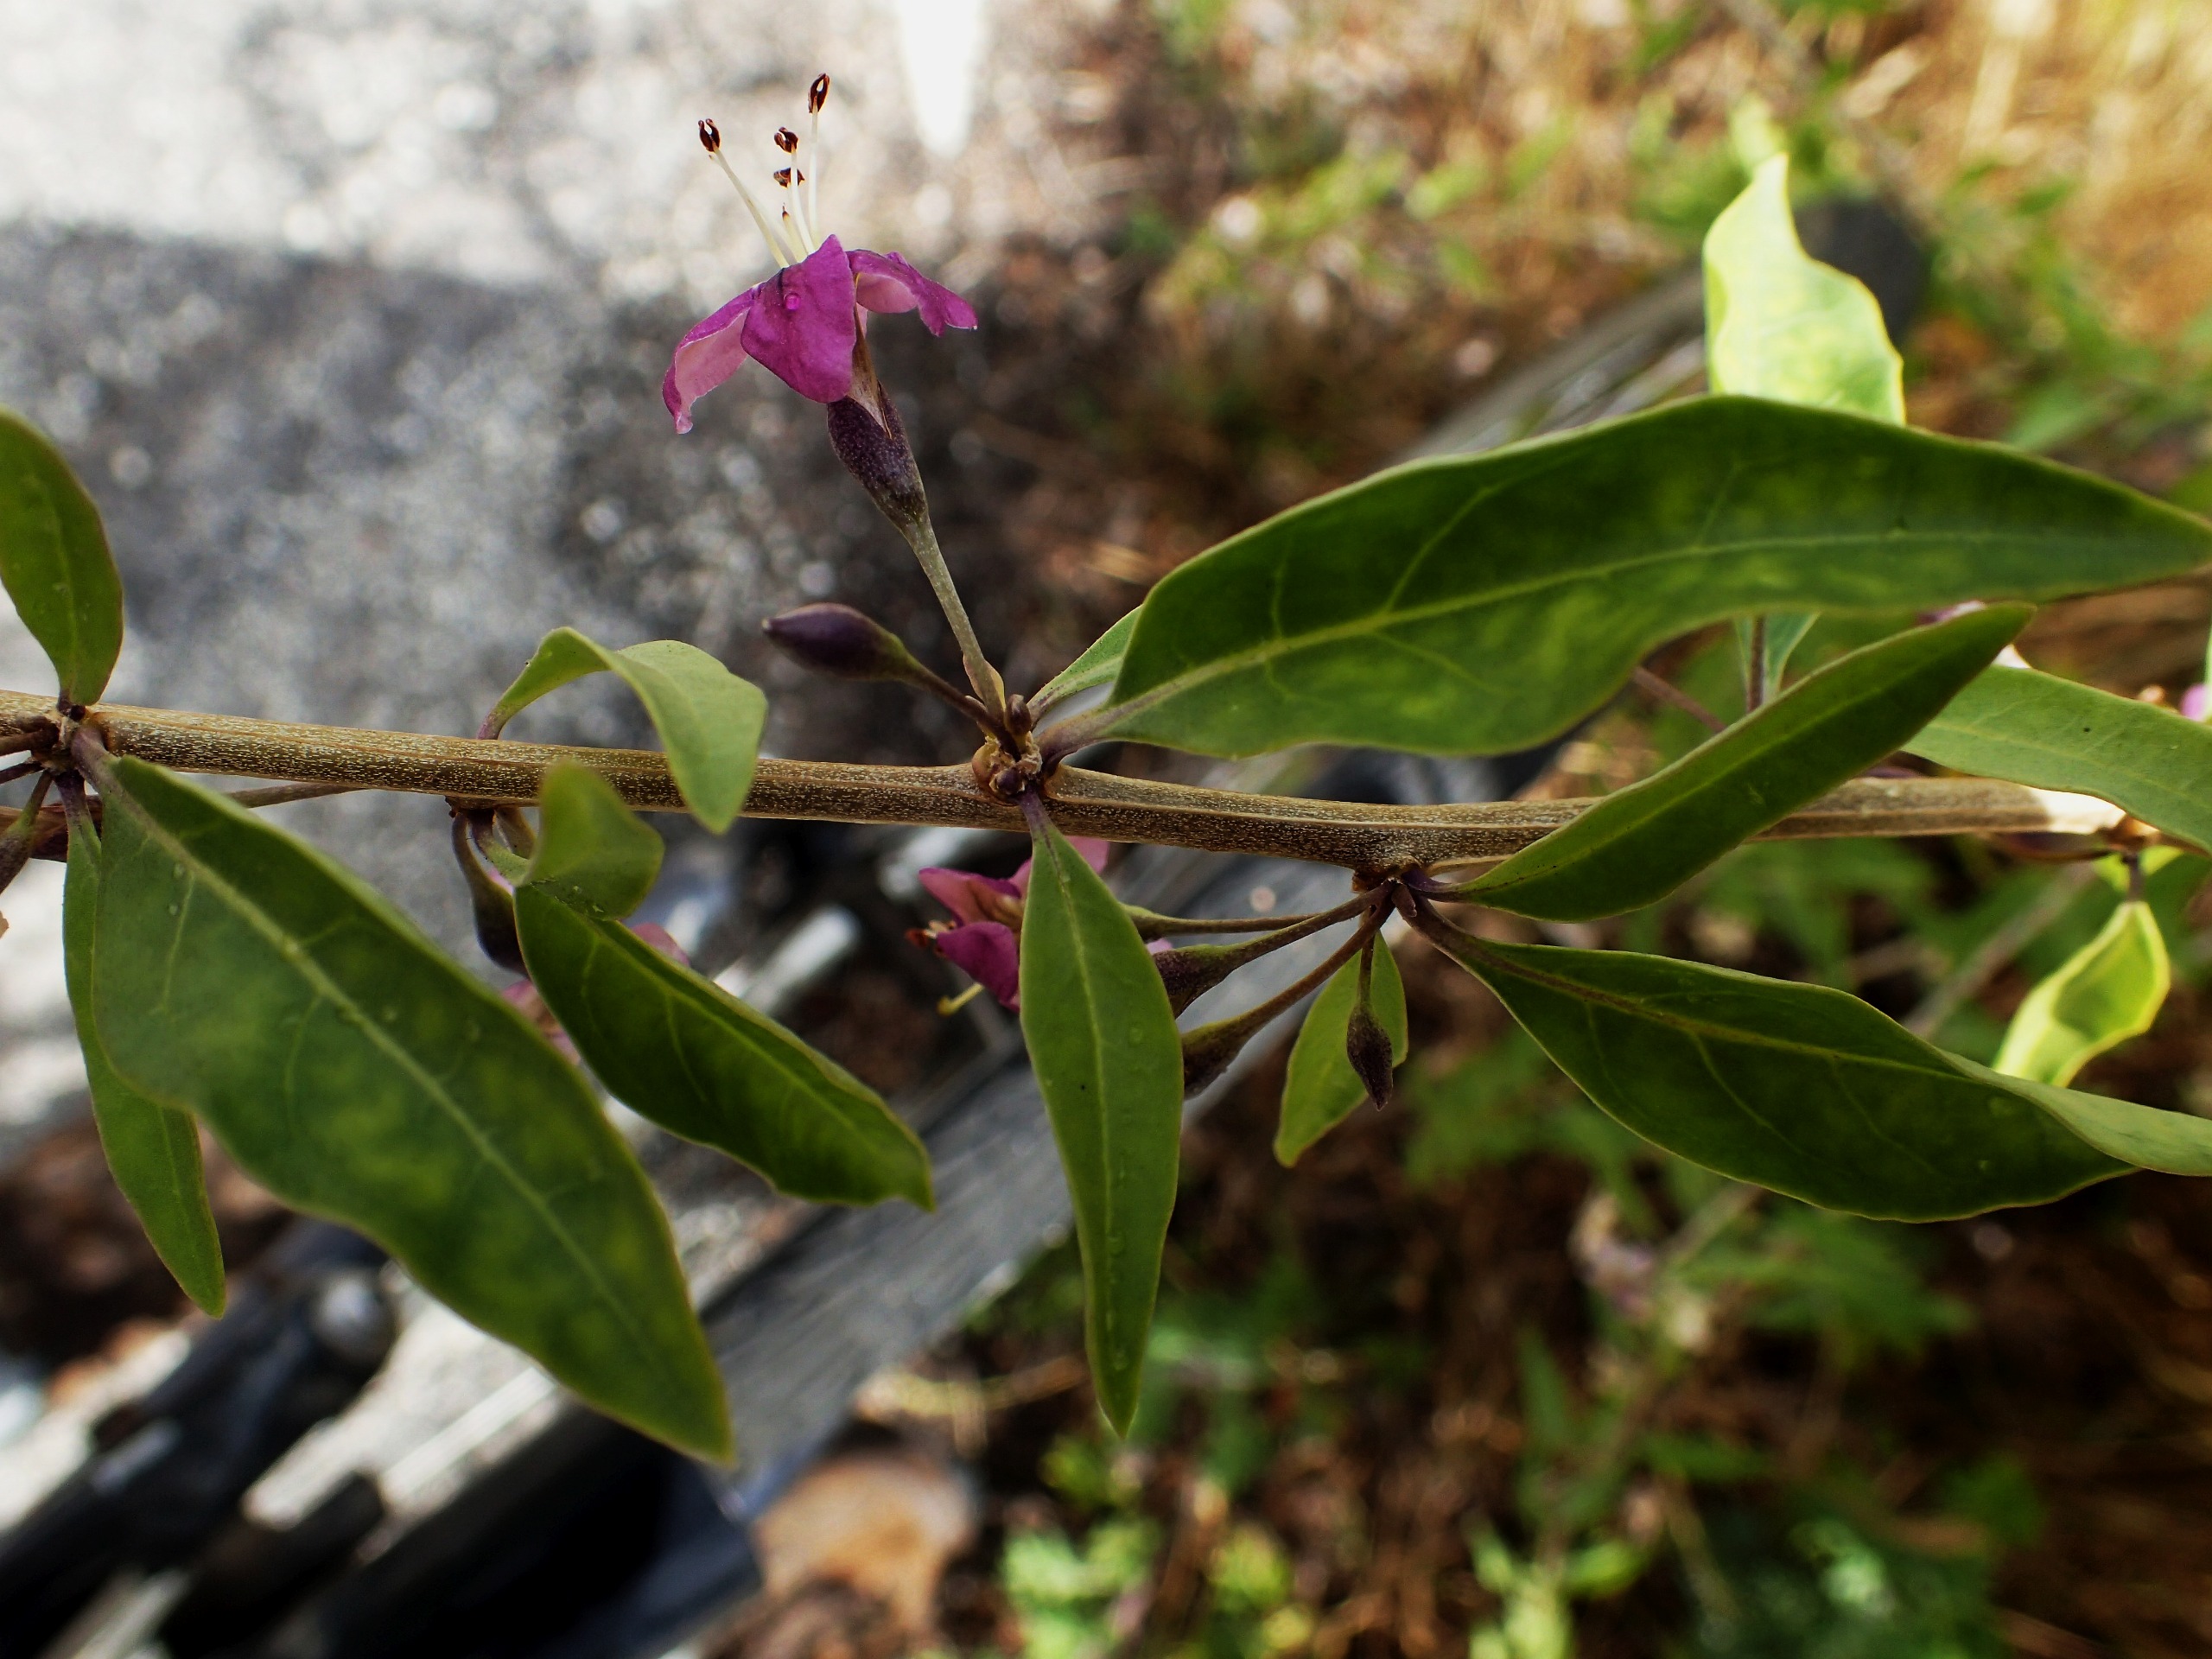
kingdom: Plantae
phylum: Tracheophyta
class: Magnoliopsida
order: Solanales
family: Solanaceae
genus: Lycium
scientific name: Lycium barbarum
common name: Bukketorn
